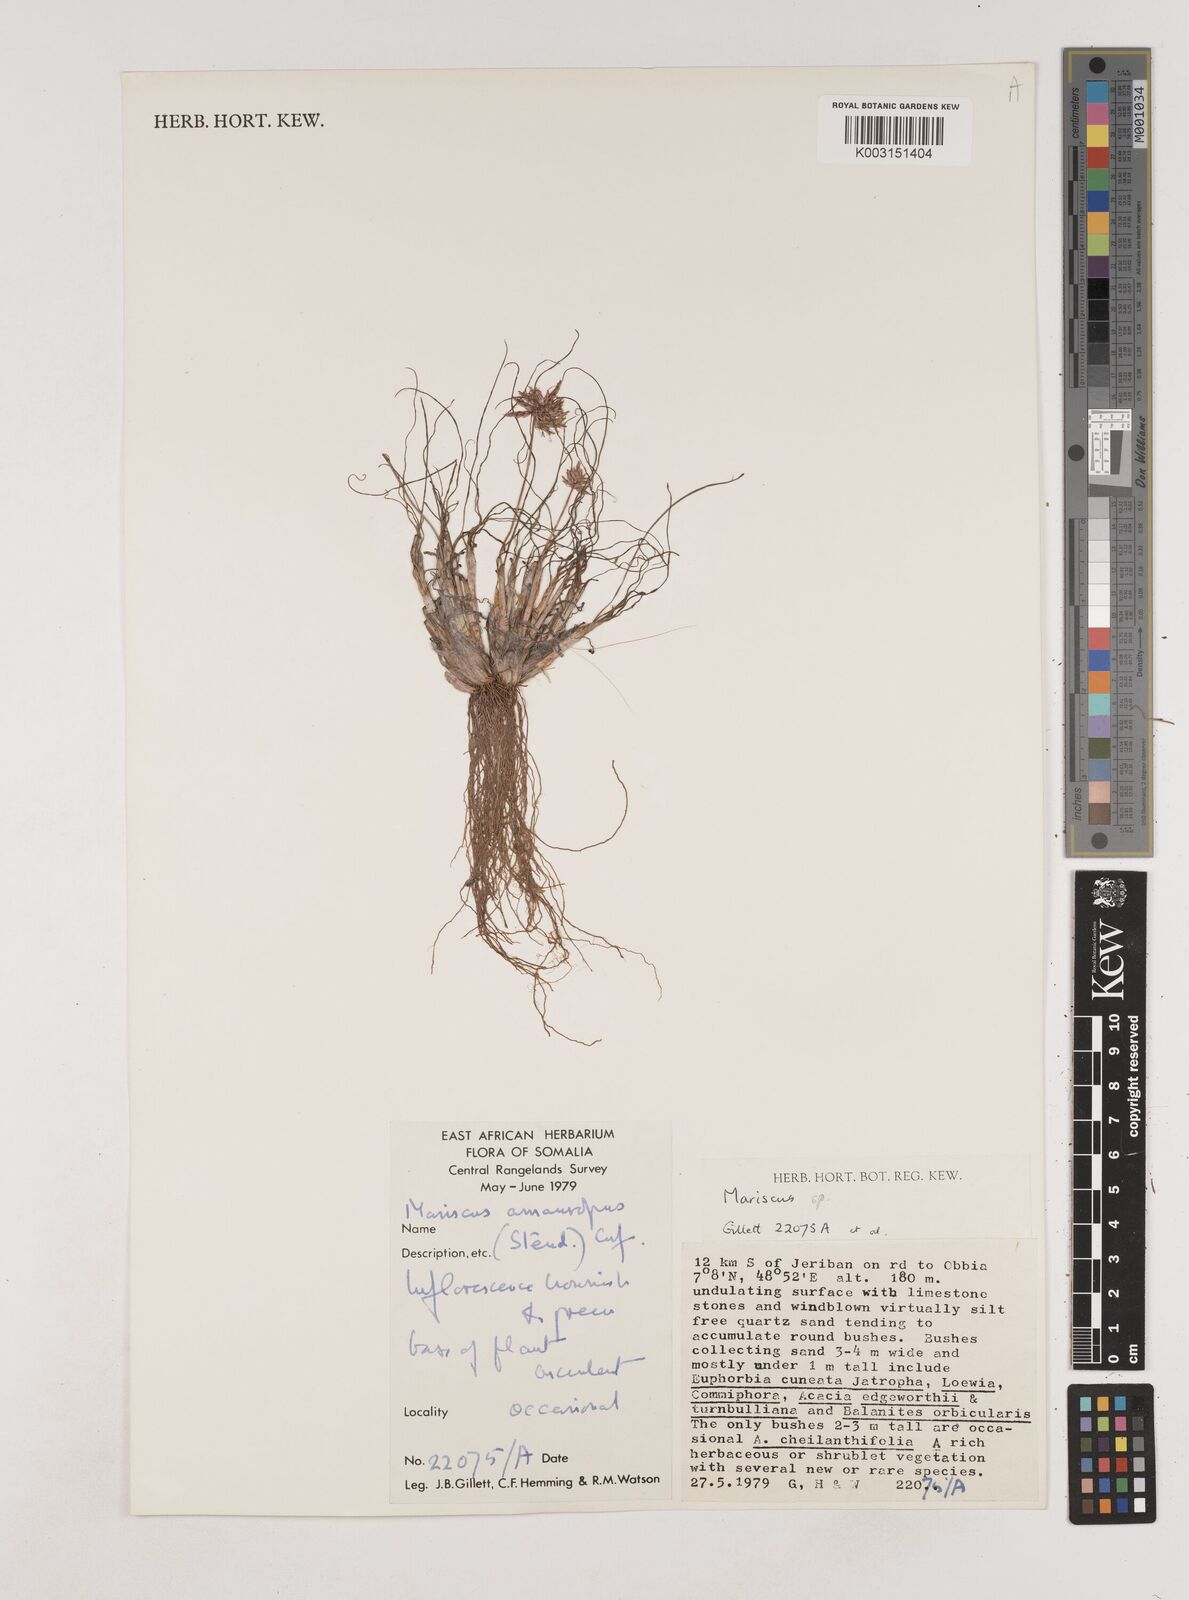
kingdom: Plantae
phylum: Tracheophyta
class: Liliopsida
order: Poales
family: Cyperaceae
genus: Cyperus
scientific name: Cyperus amauropus
